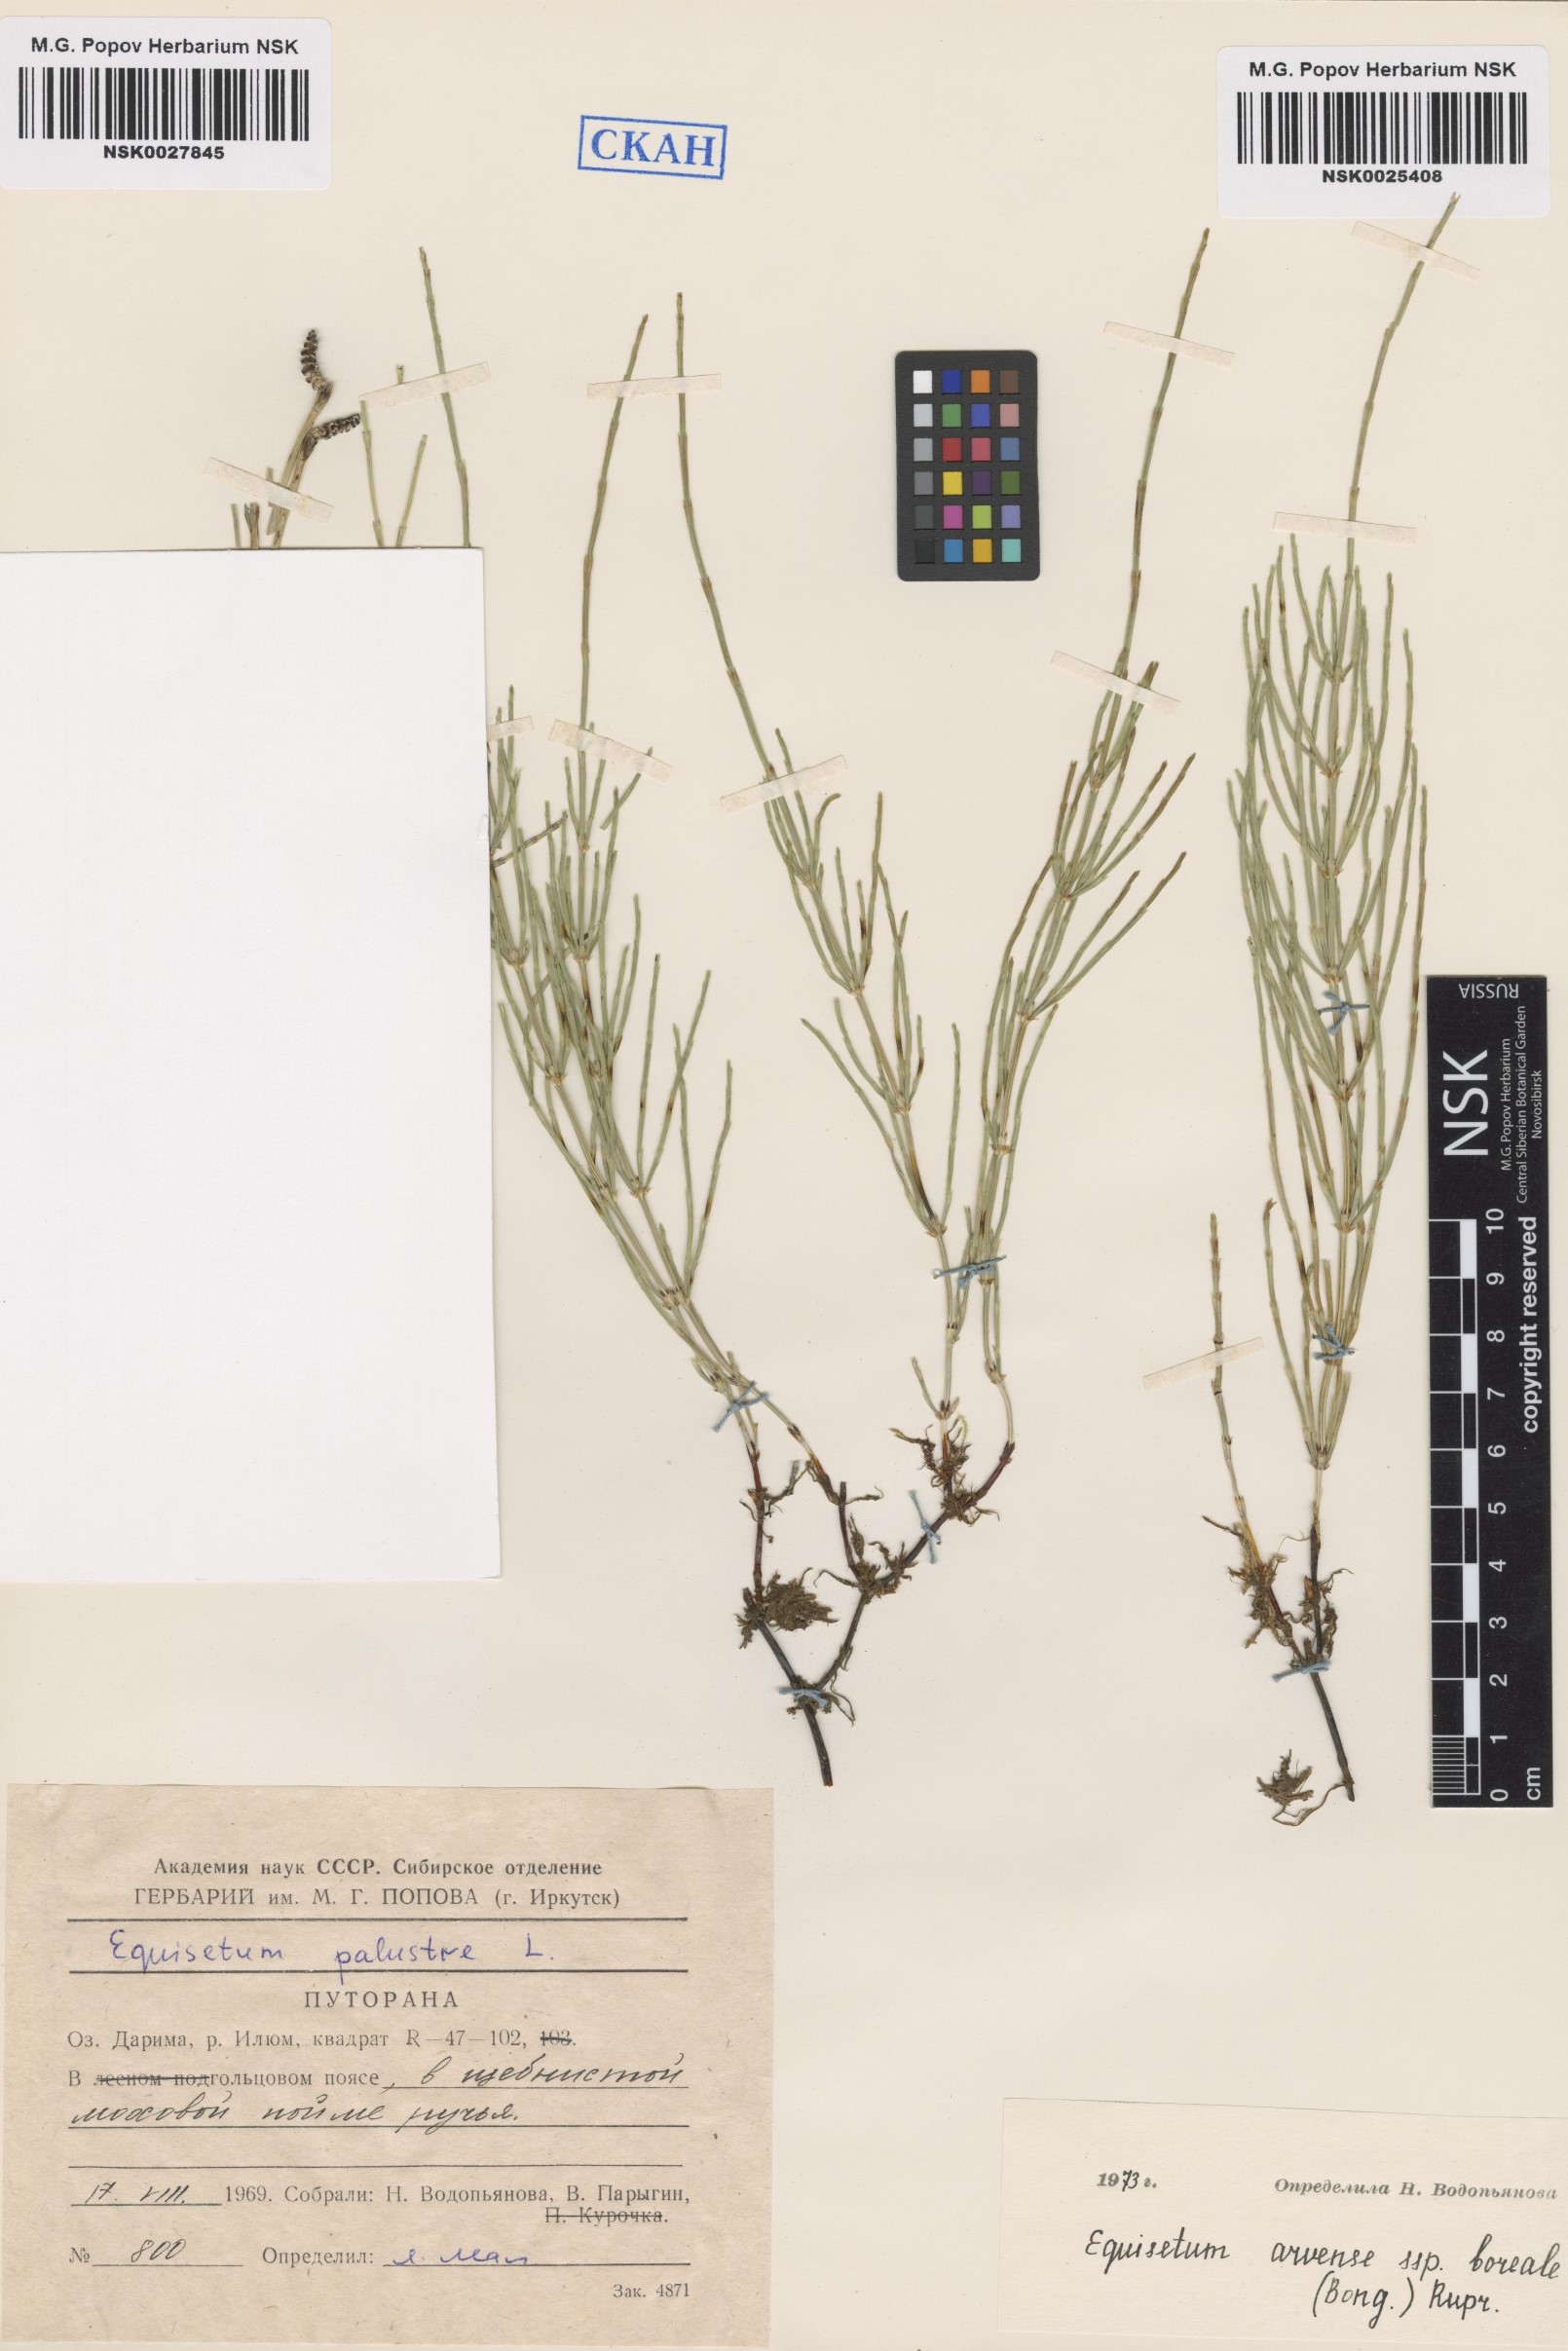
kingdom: Plantae
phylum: Tracheophyta
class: Polypodiopsida
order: Equisetales
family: Equisetaceae
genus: Equisetum
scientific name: Equisetum arvense
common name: Field horsetail
